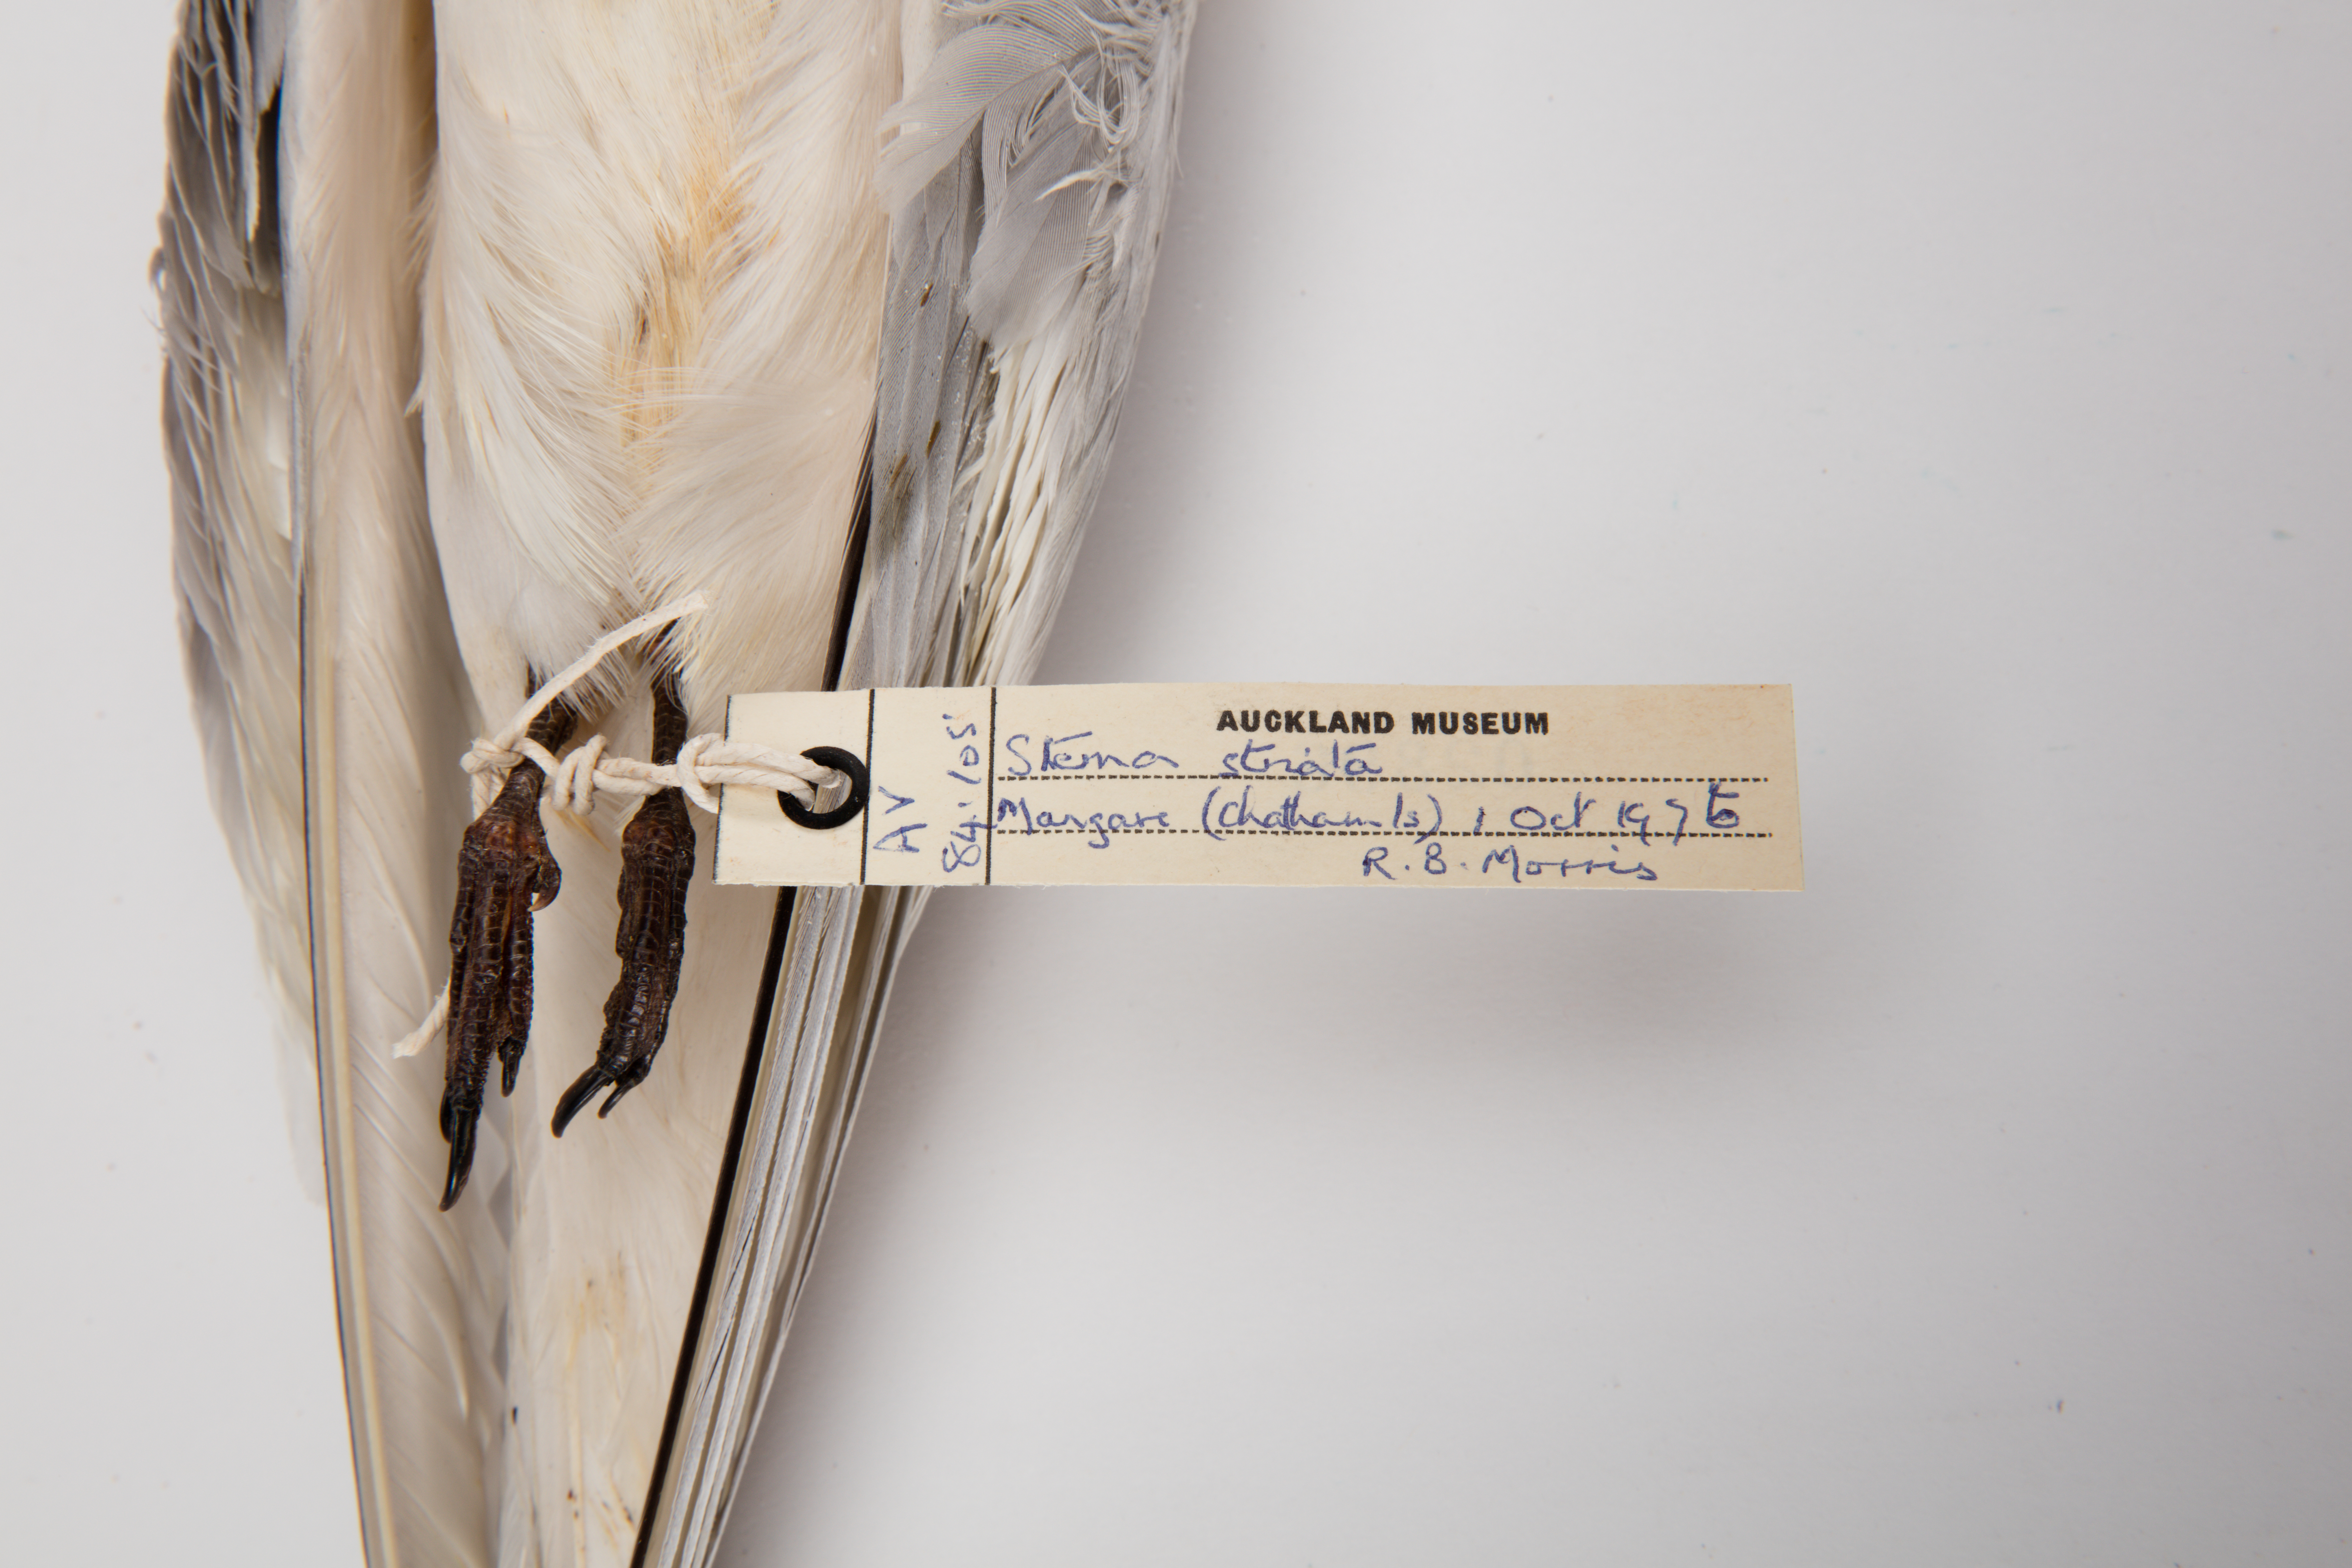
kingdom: Animalia
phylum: Chordata
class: Aves
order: Charadriiformes
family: Laridae
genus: Sterna
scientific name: Sterna striata
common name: White-fronted tern
